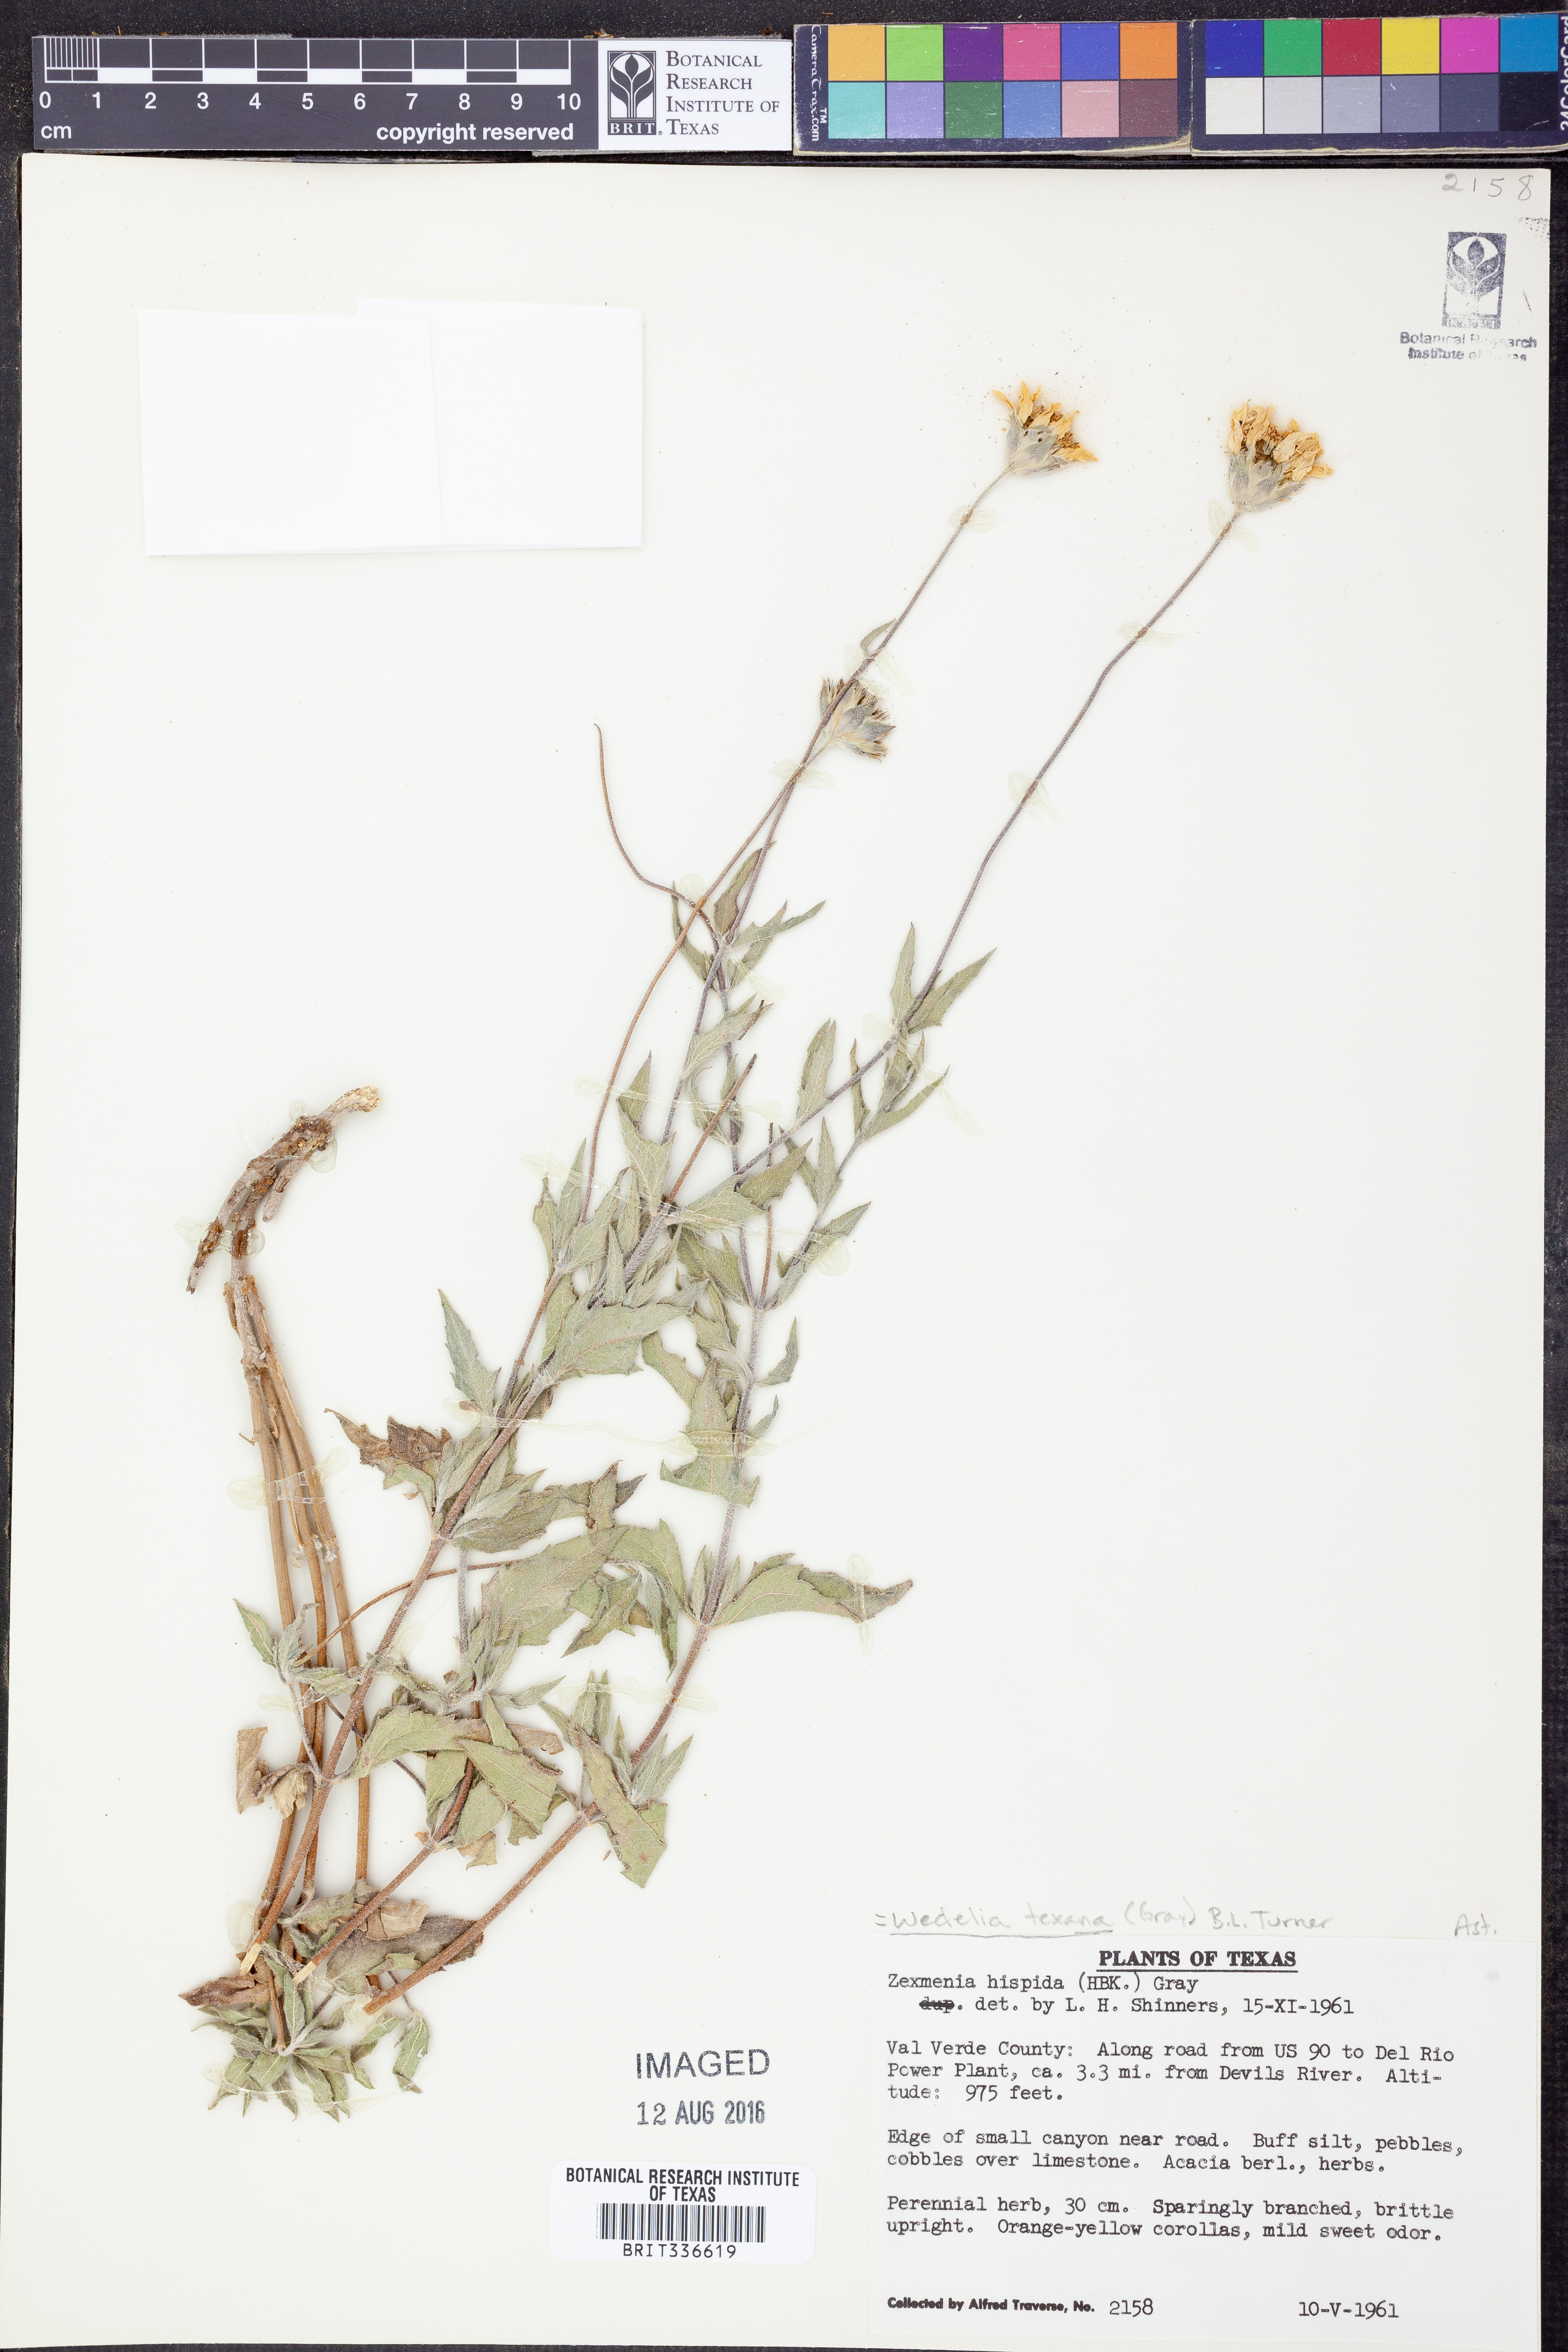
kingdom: Plantae
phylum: Tracheophyta
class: Magnoliopsida
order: Asterales
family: Asteraceae
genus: Wedelia
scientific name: Wedelia acapulcensis
